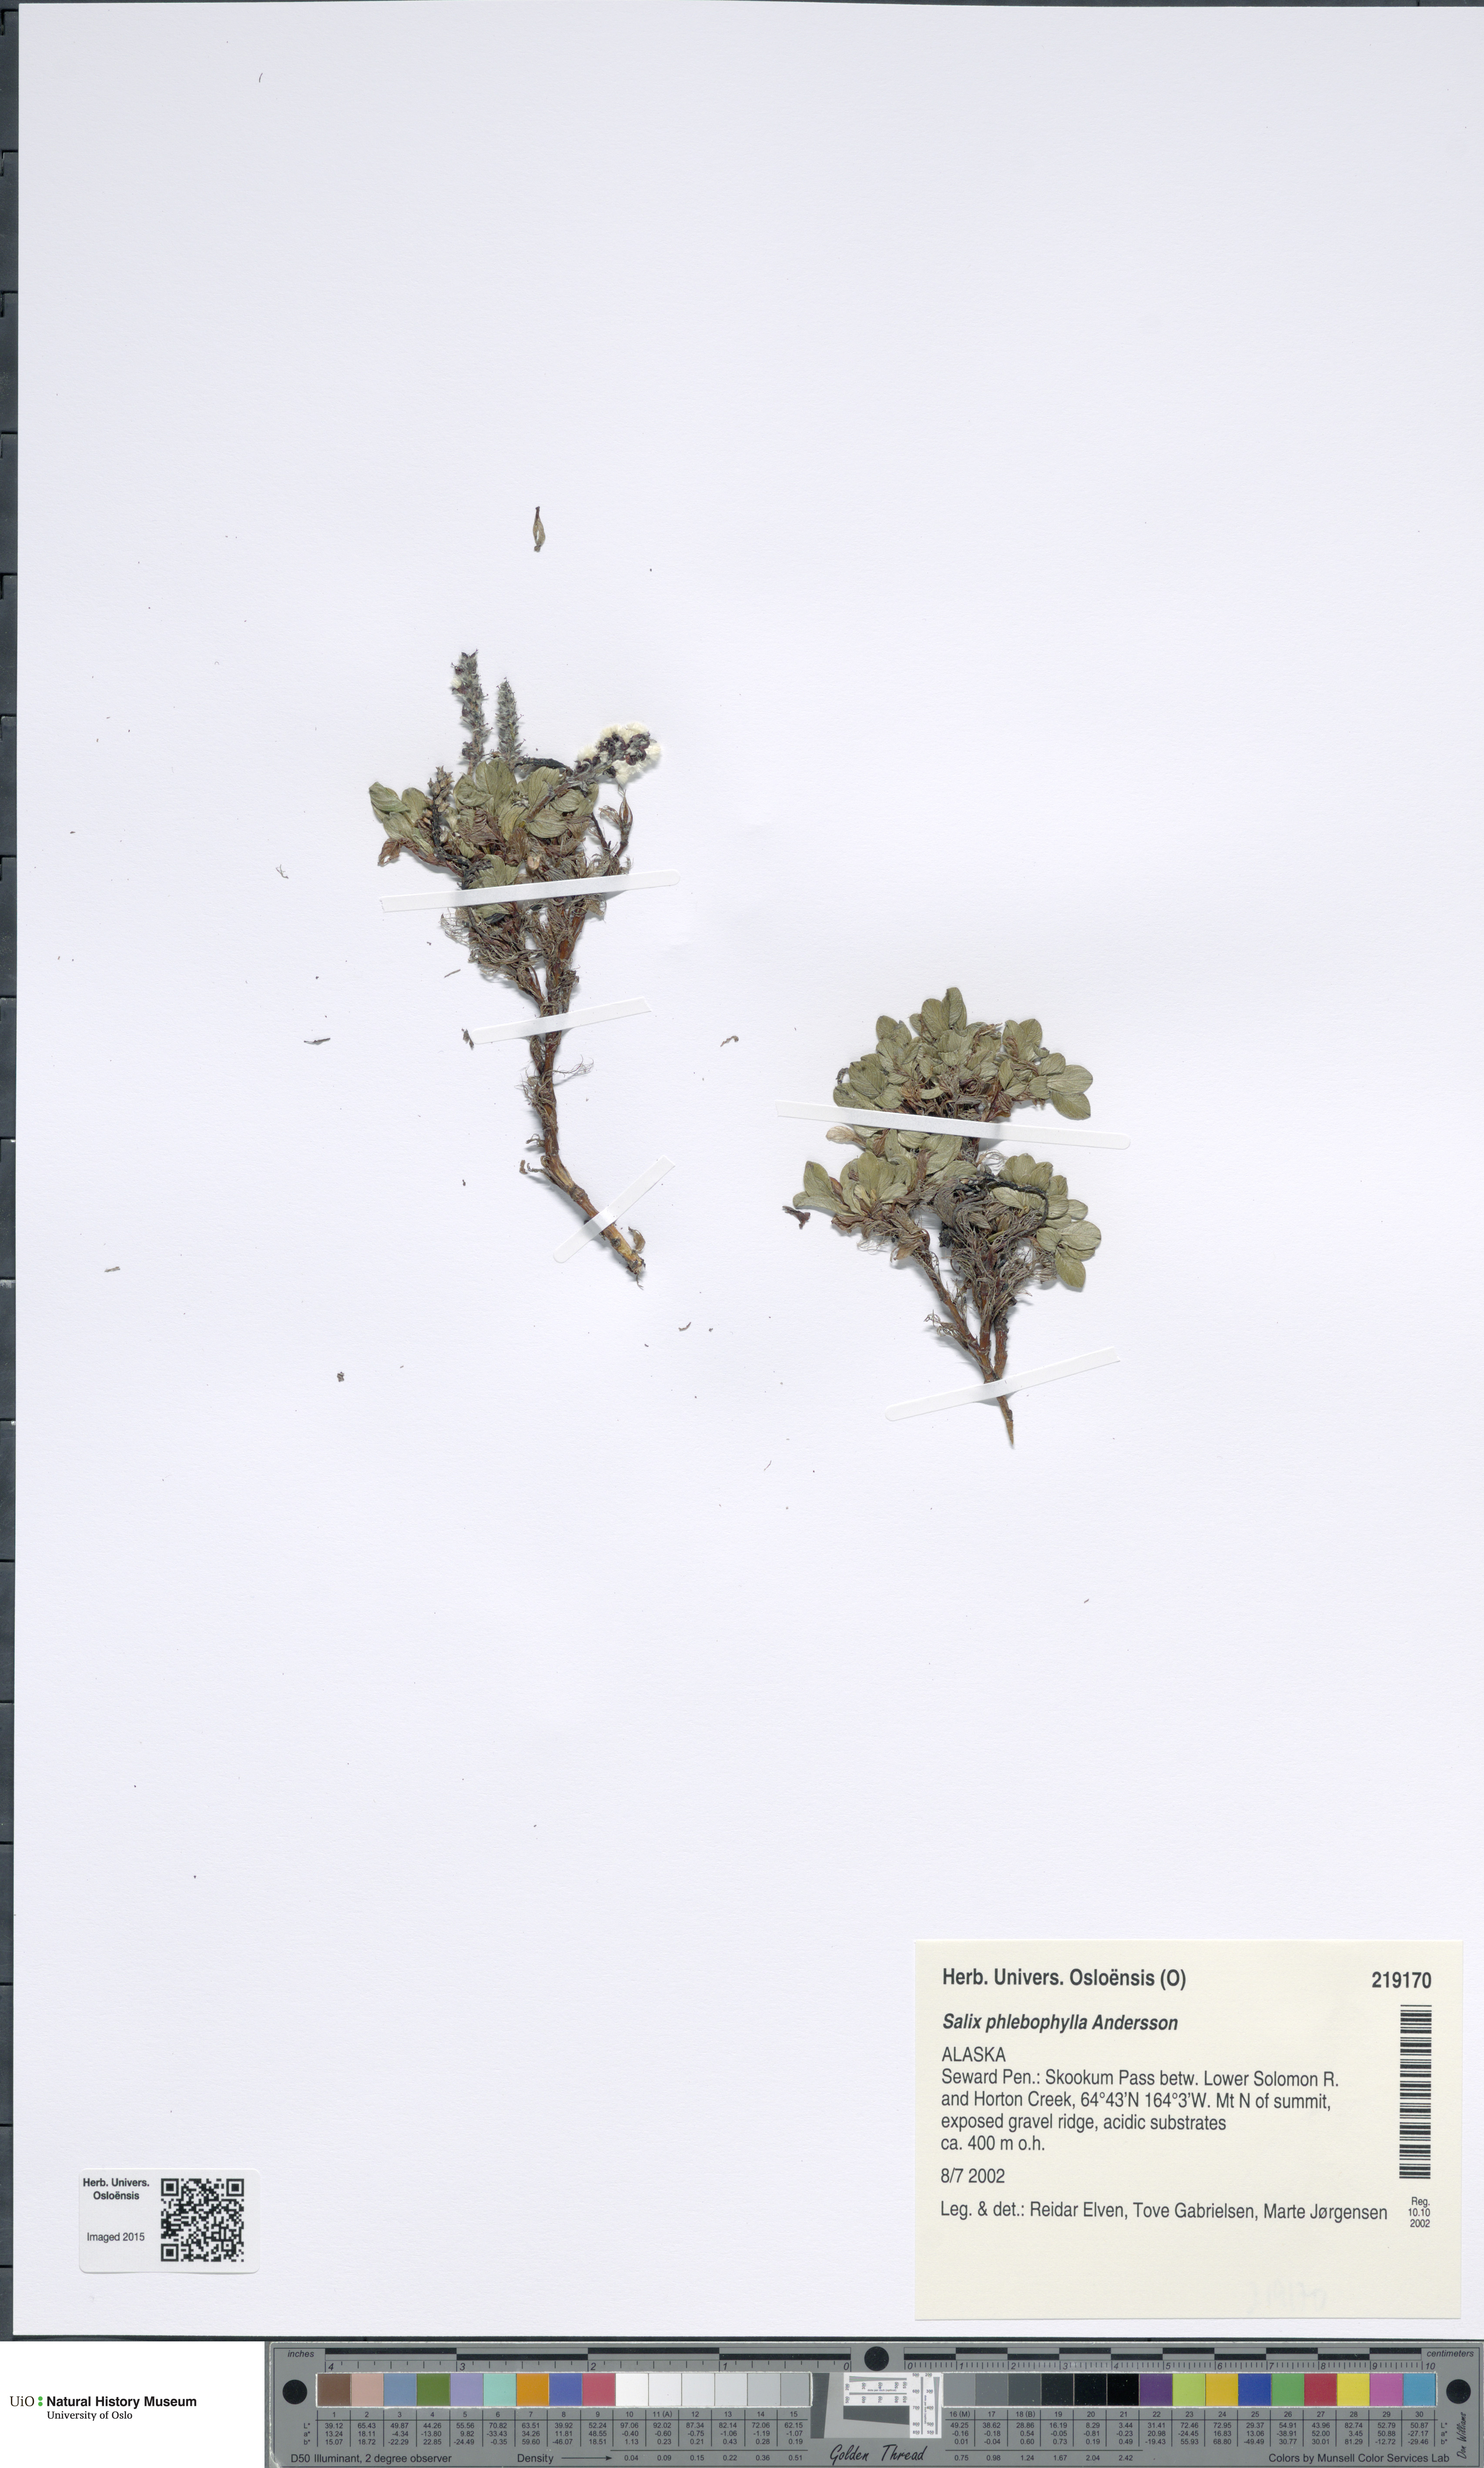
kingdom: Plantae
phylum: Tracheophyta
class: Magnoliopsida
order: Malpighiales
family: Salicaceae
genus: Salix
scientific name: Salix phlebophylla
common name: Skeleton-leaved willow
